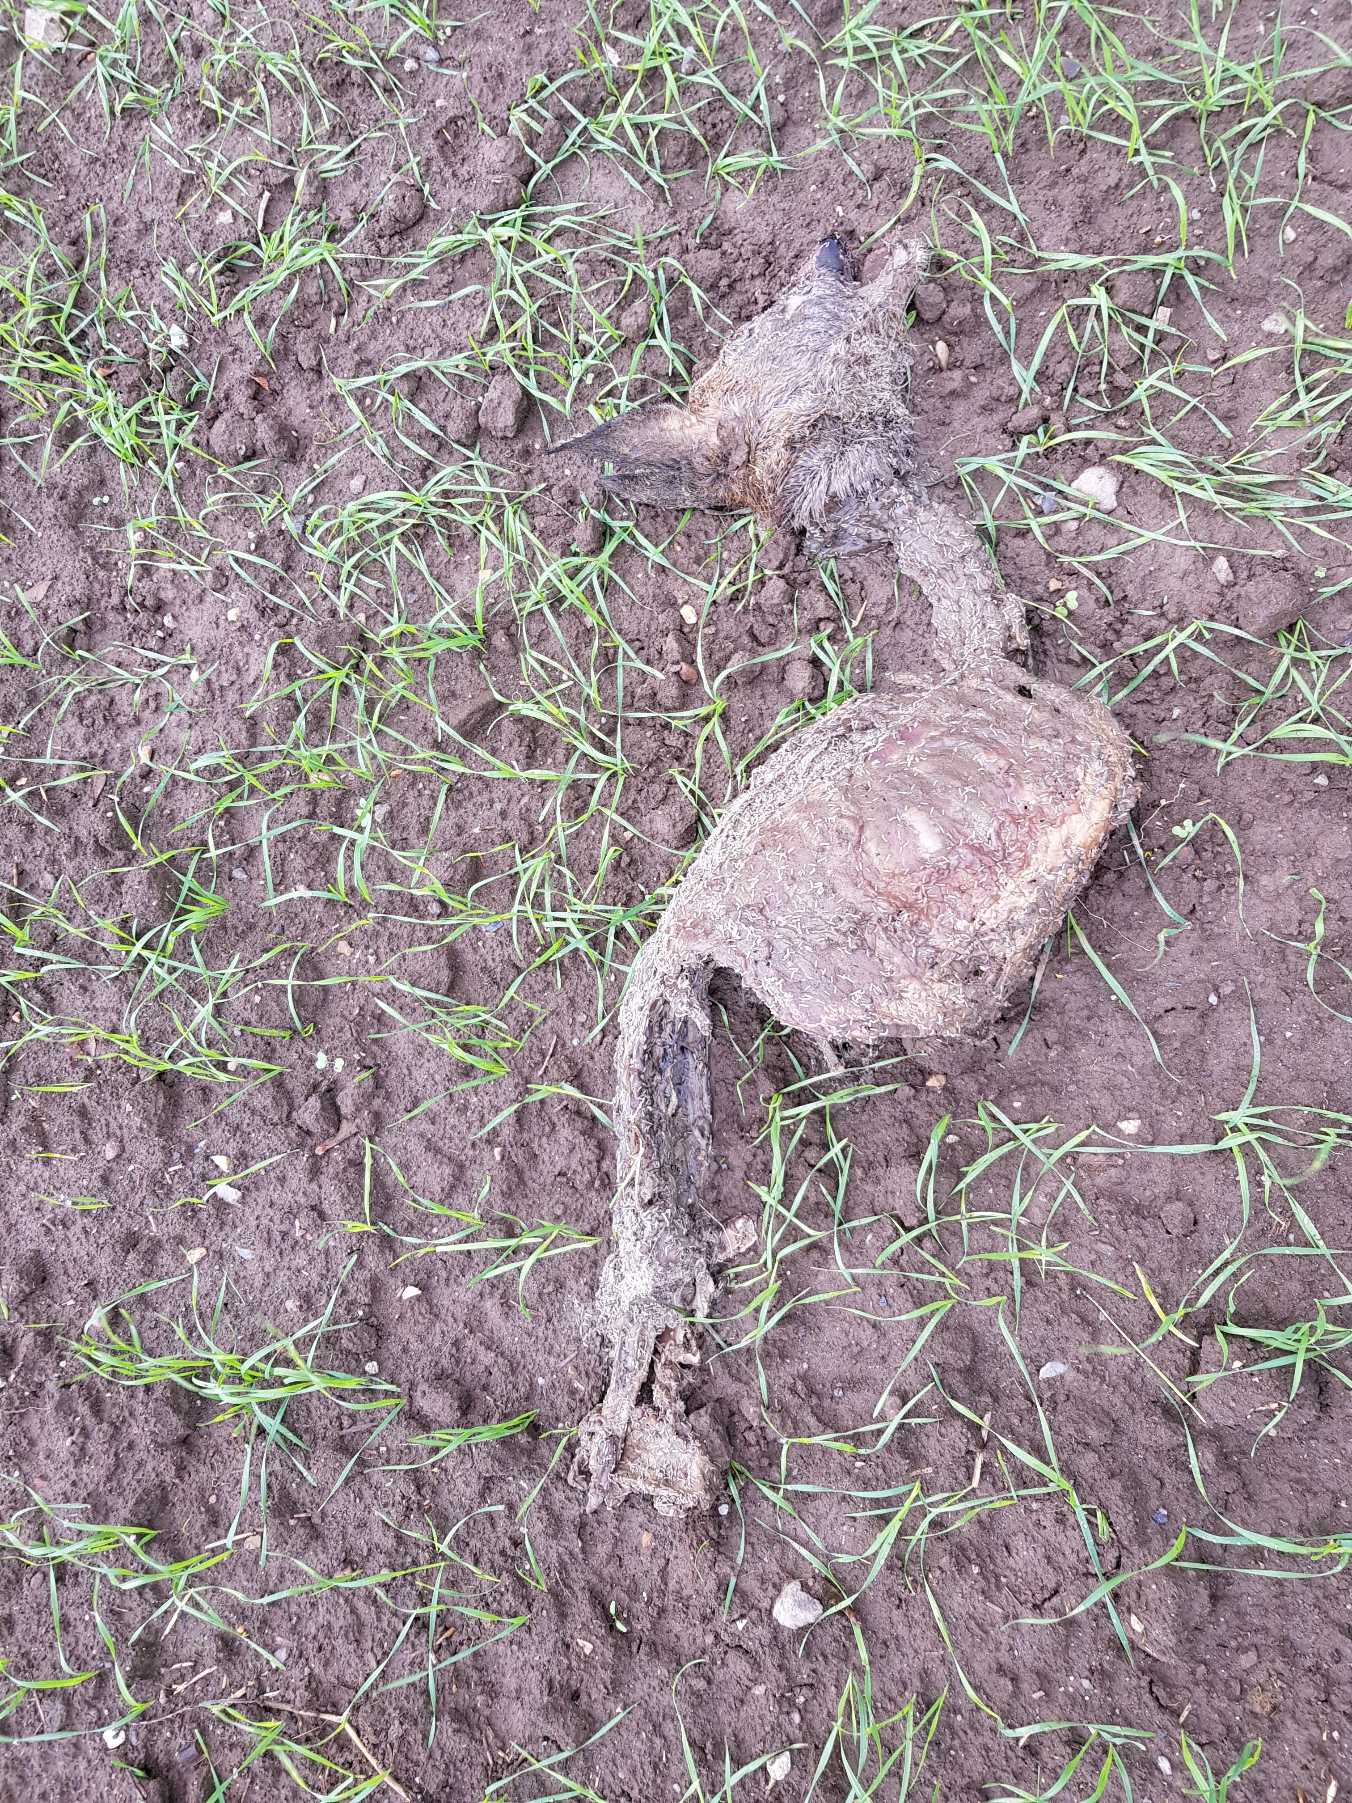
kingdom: Animalia
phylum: Chordata
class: Mammalia
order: Artiodactyla
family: Cervidae
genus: Capreolus
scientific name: Capreolus capreolus
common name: Rådyr
